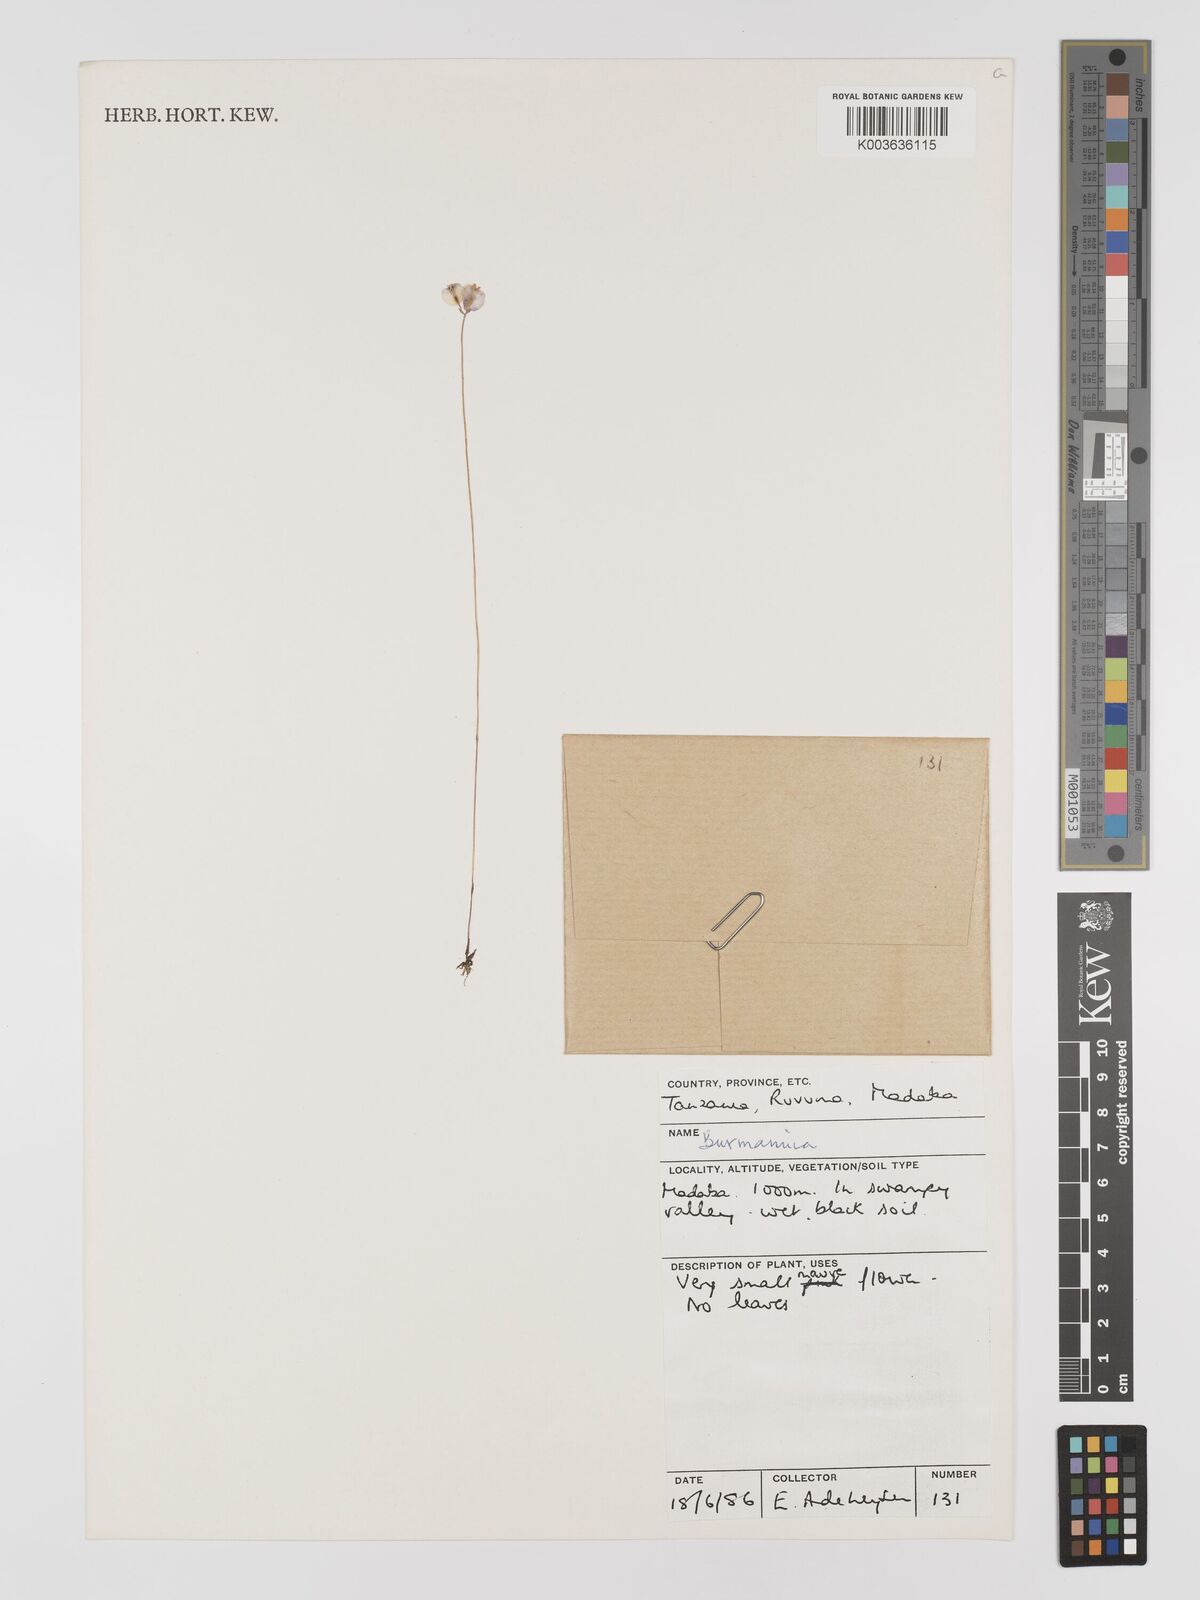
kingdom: Plantae
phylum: Tracheophyta
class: Liliopsida
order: Dioscoreales
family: Burmanniaceae
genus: Burmannia
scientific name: Burmannia
